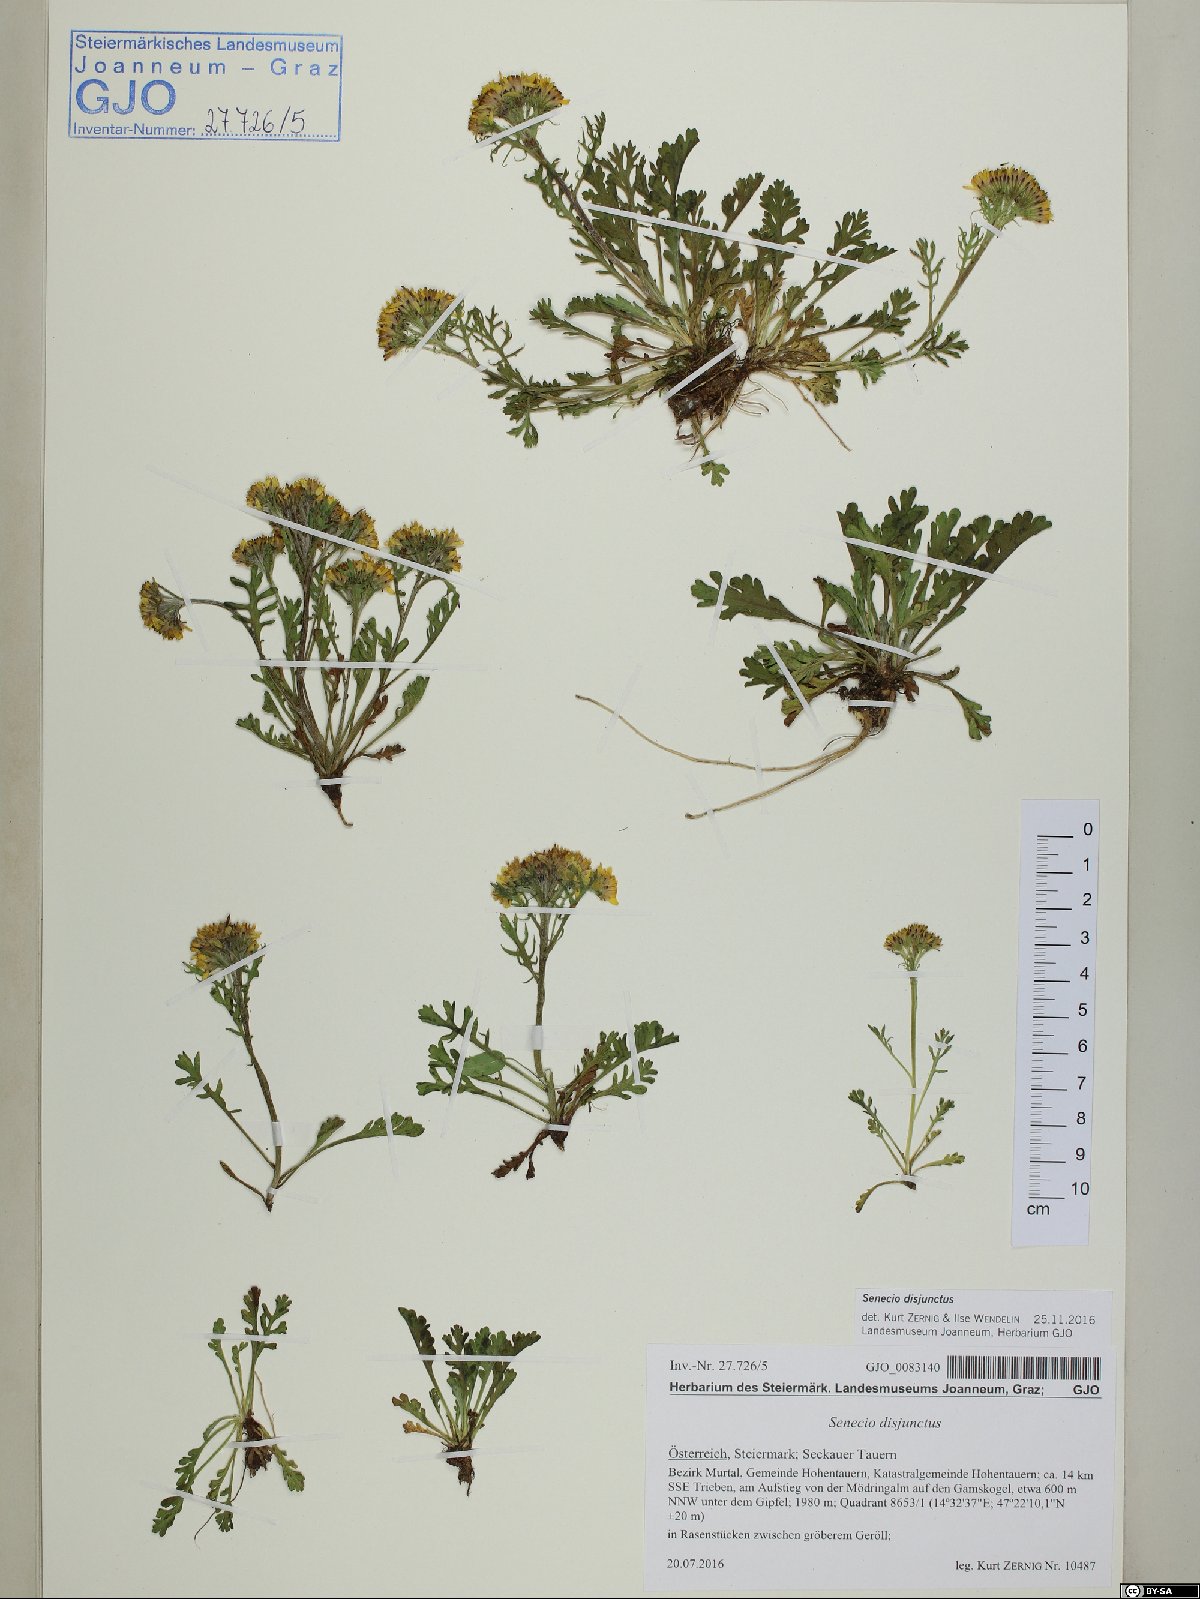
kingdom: Plantae
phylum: Tracheophyta
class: Magnoliopsida
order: Asterales
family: Asteraceae
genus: Jacobaea
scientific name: Jacobaea disjuncta
